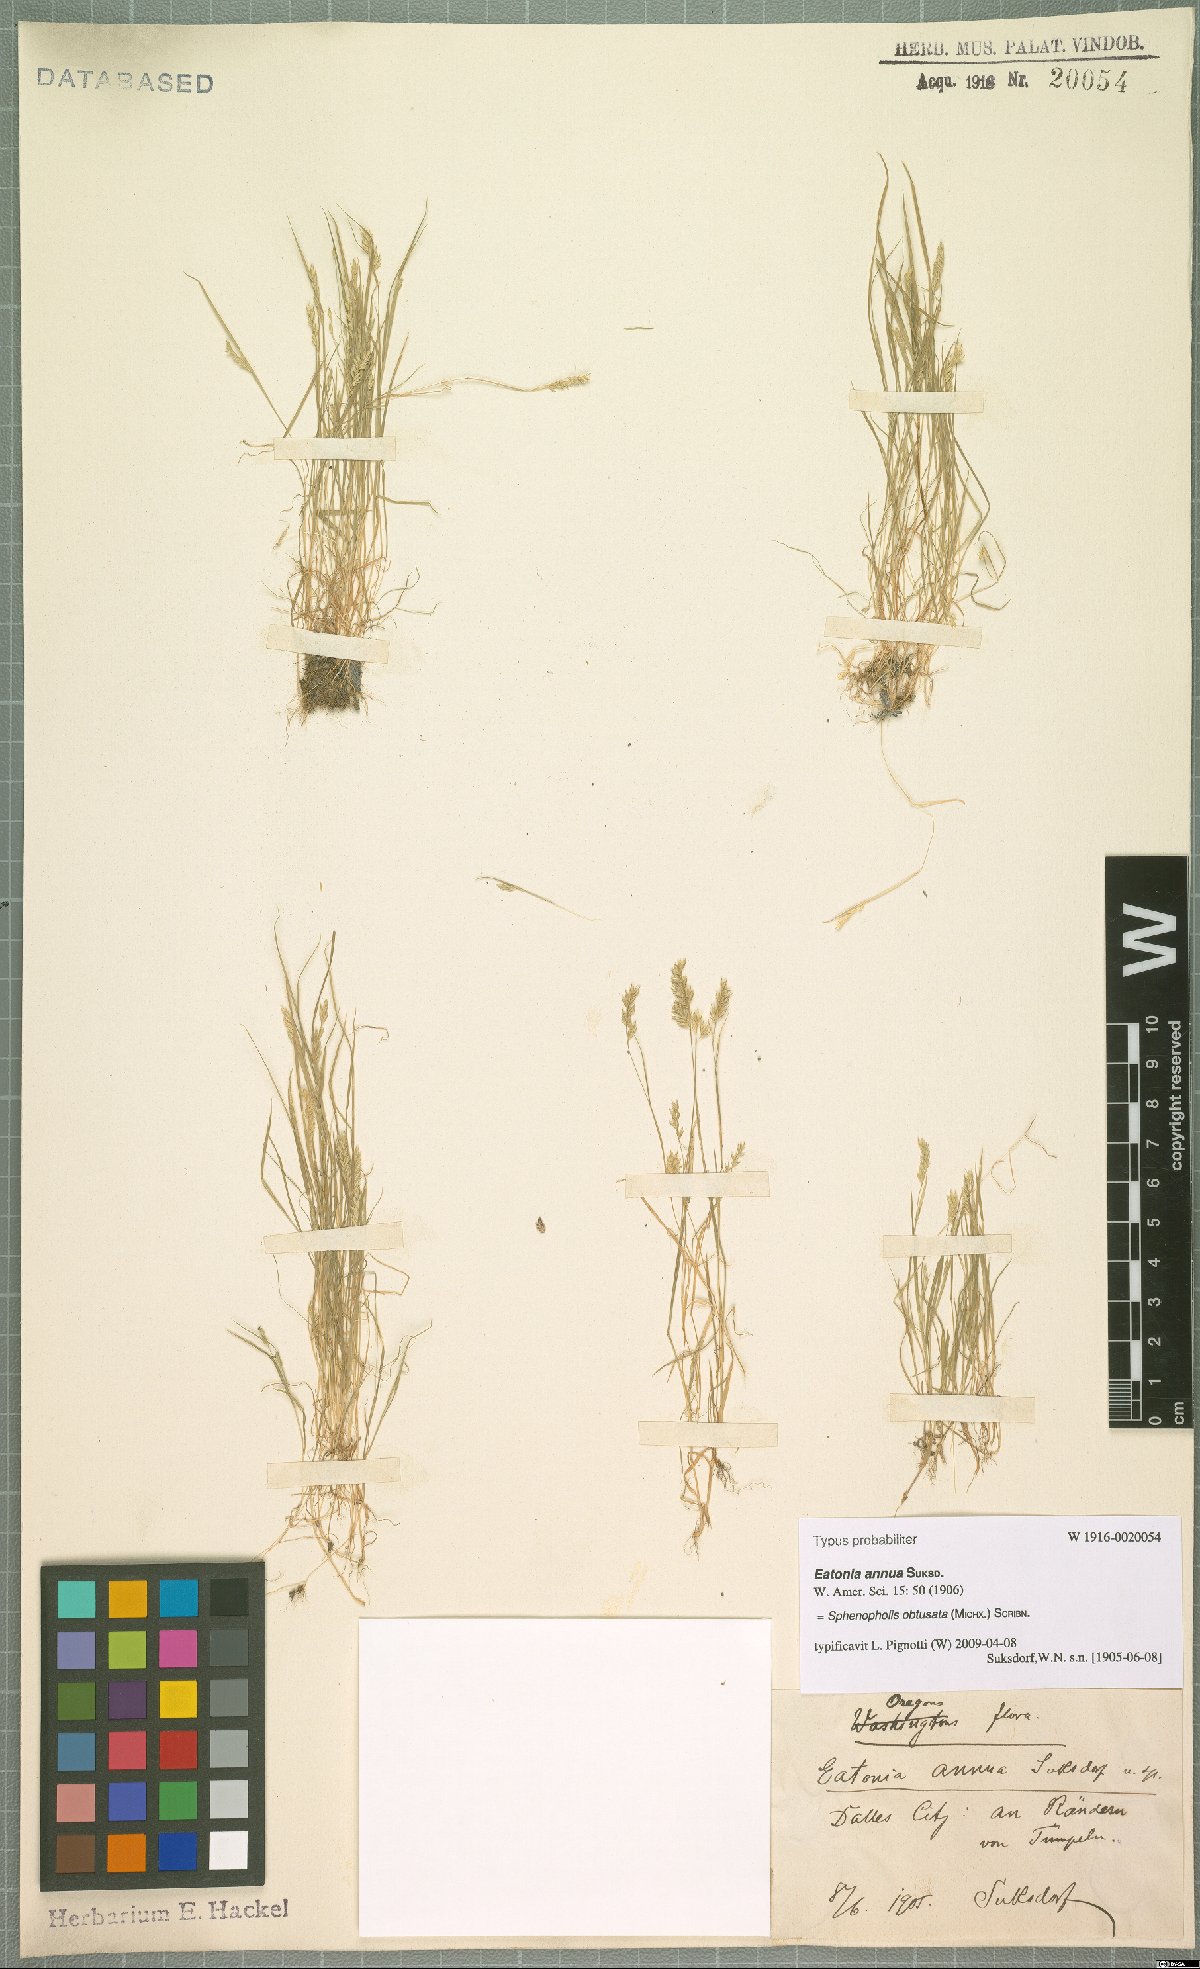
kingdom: Plantae
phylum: Tracheophyta
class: Liliopsida
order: Poales
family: Poaceae
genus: Sphenopholis
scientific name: Sphenopholis obtusata
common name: Prairie grass
